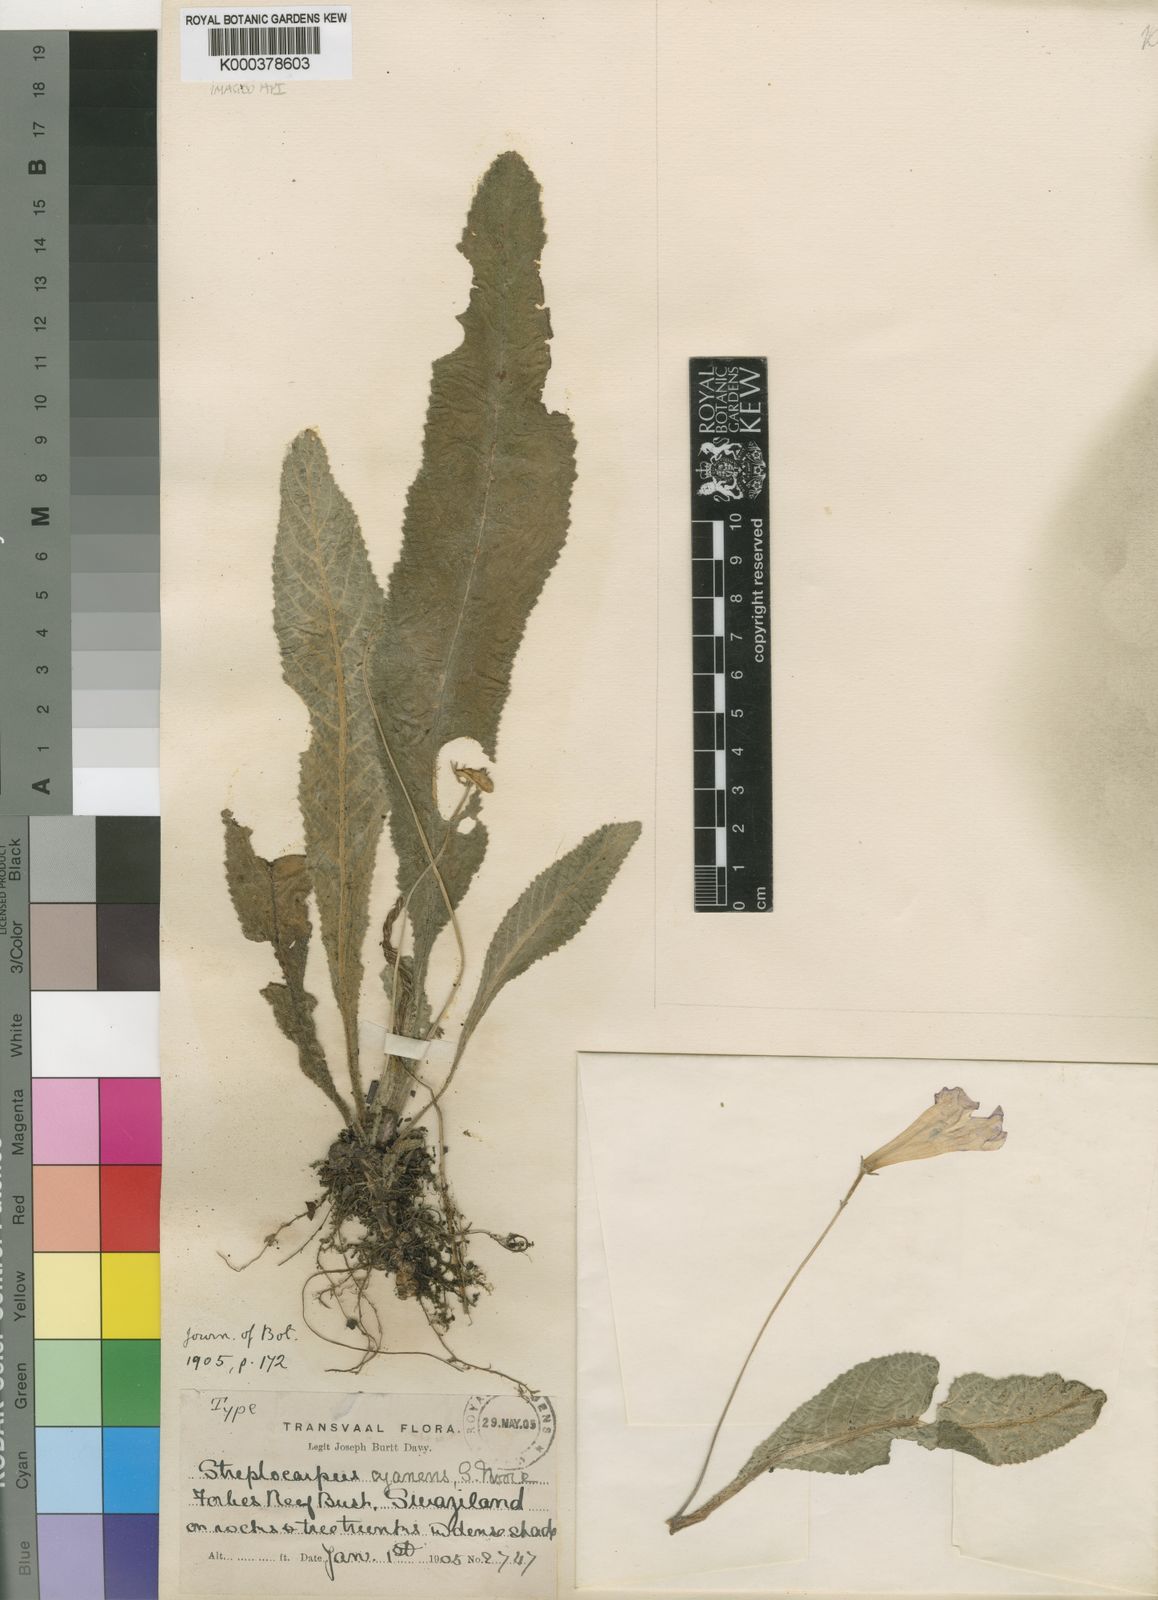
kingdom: Plantae
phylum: Tracheophyta
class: Magnoliopsida
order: Lamiales
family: Gesneriaceae
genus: Streptocarpus
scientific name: Streptocarpus cyaneus
